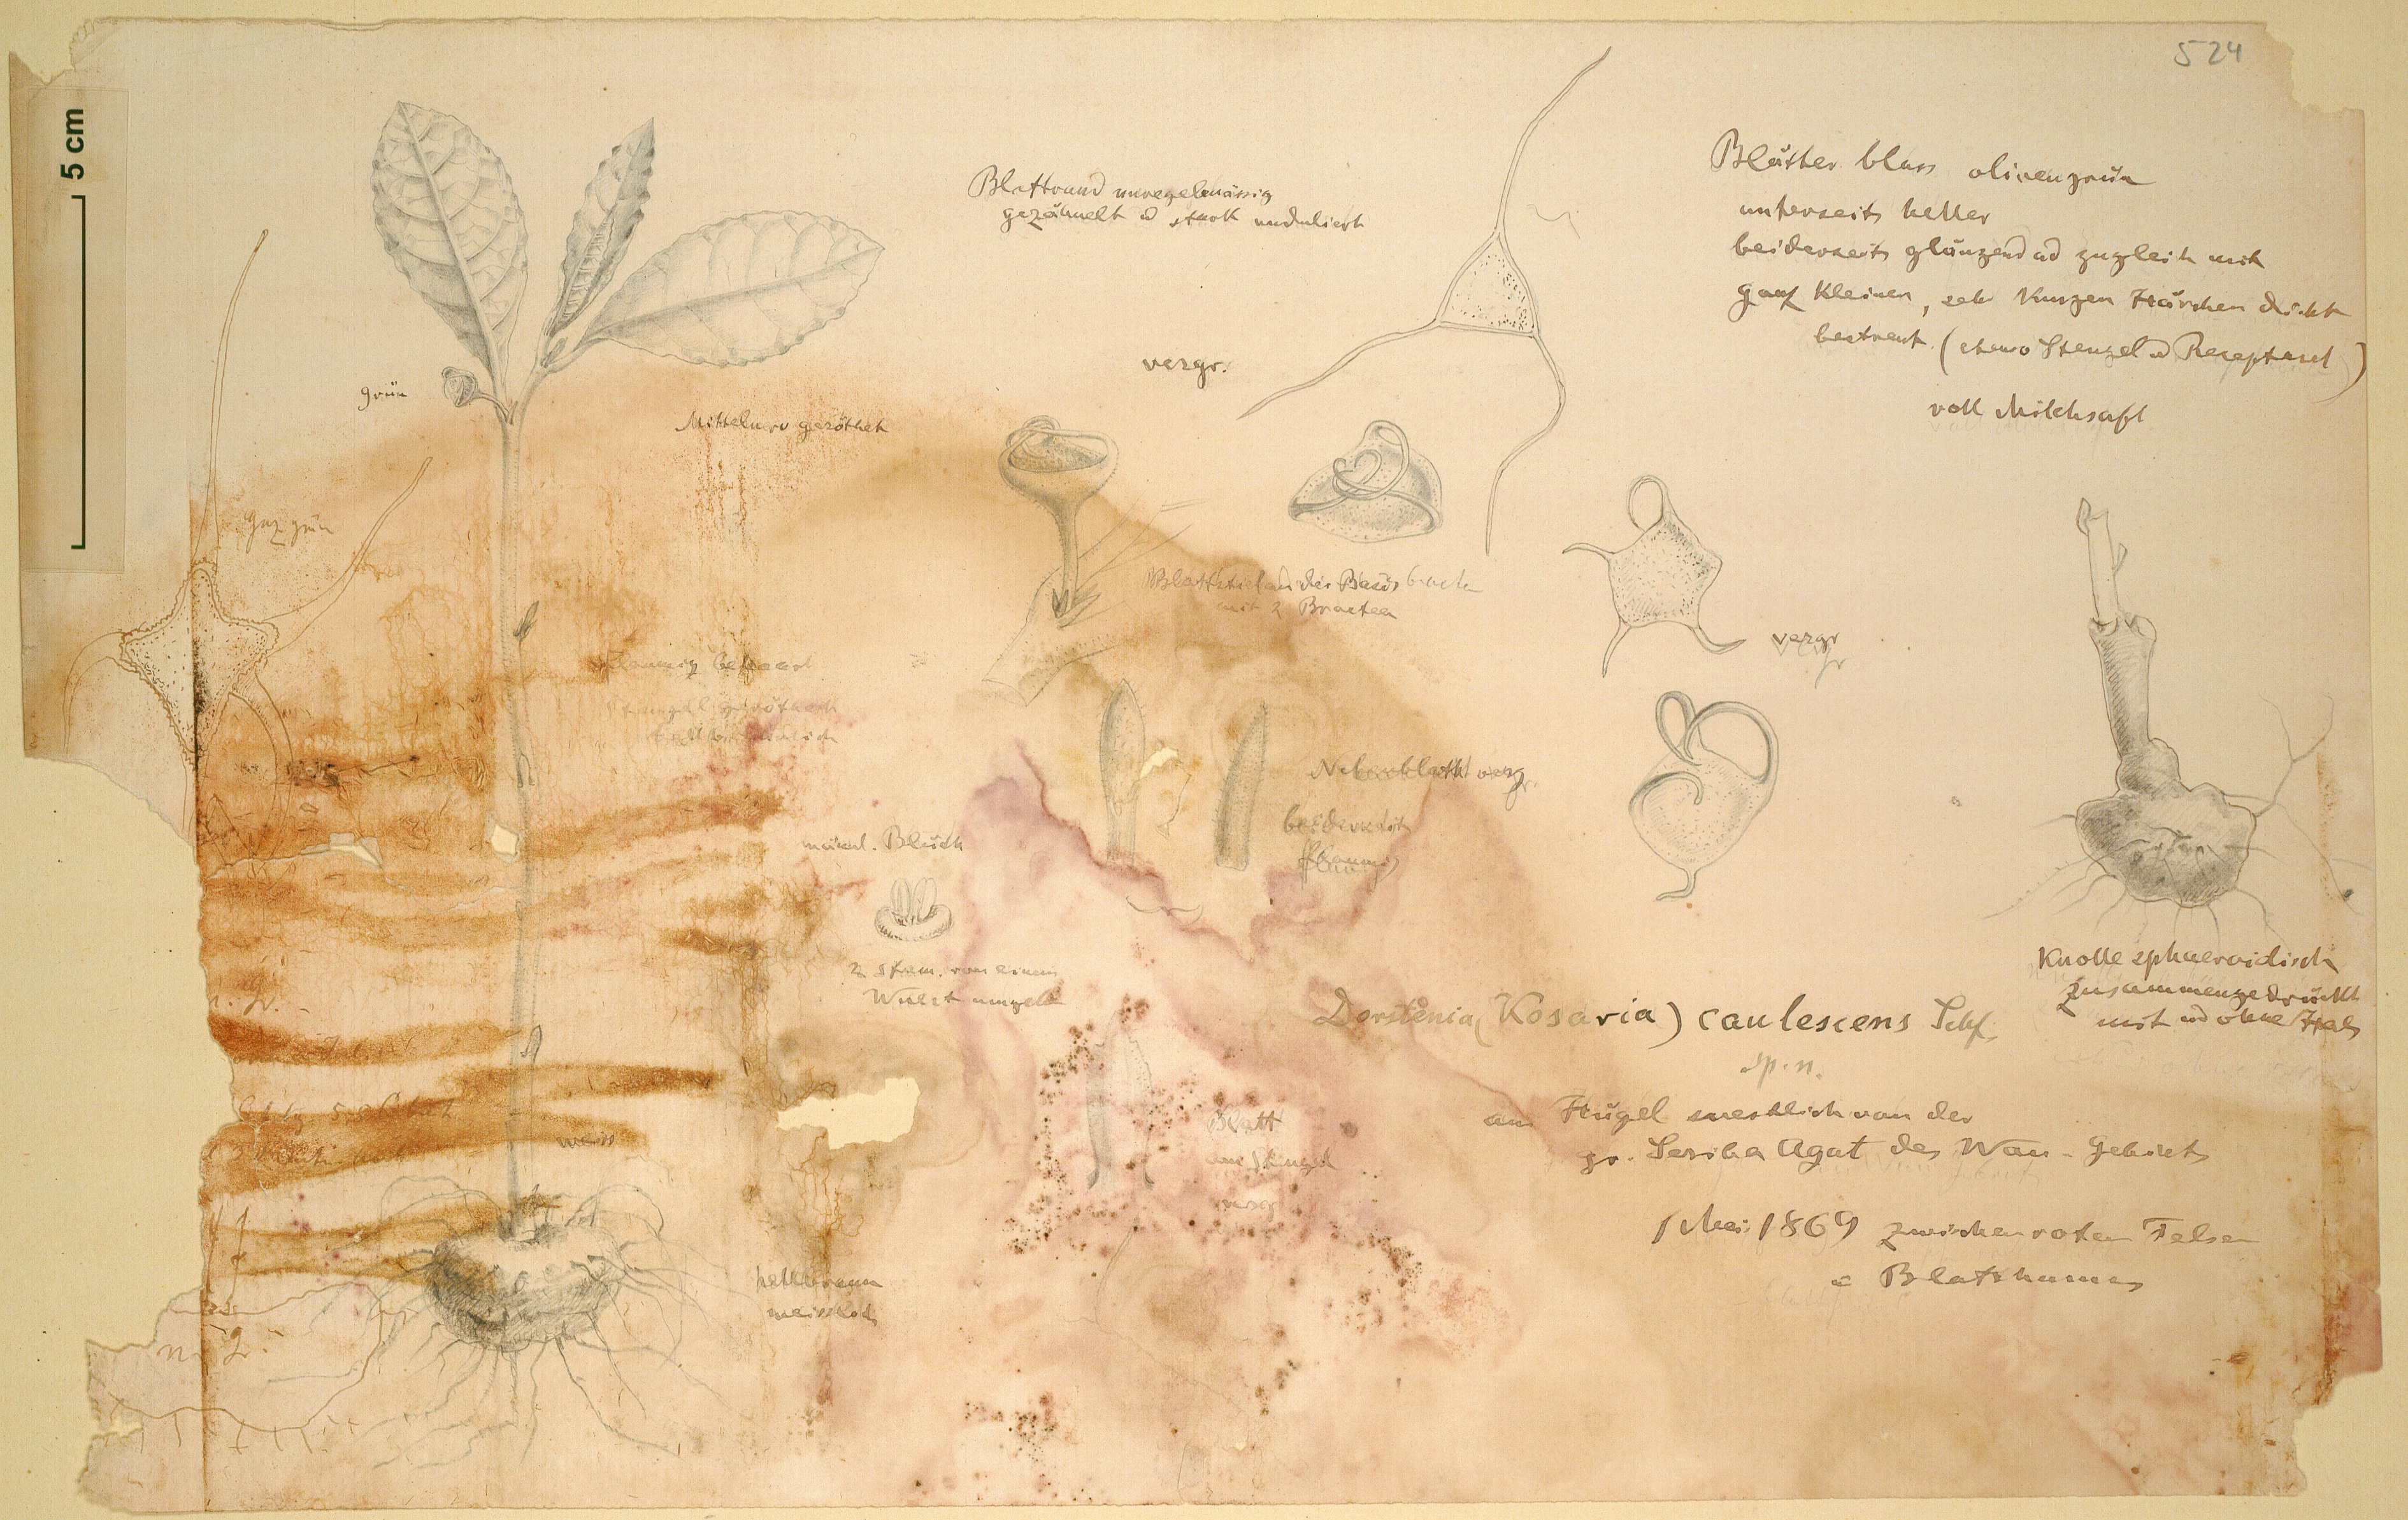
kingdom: Plantae
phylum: Tracheophyta
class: Magnoliopsida
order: Rosales
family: Moraceae
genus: Dorstenia
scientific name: Dorstenia cuspidata
